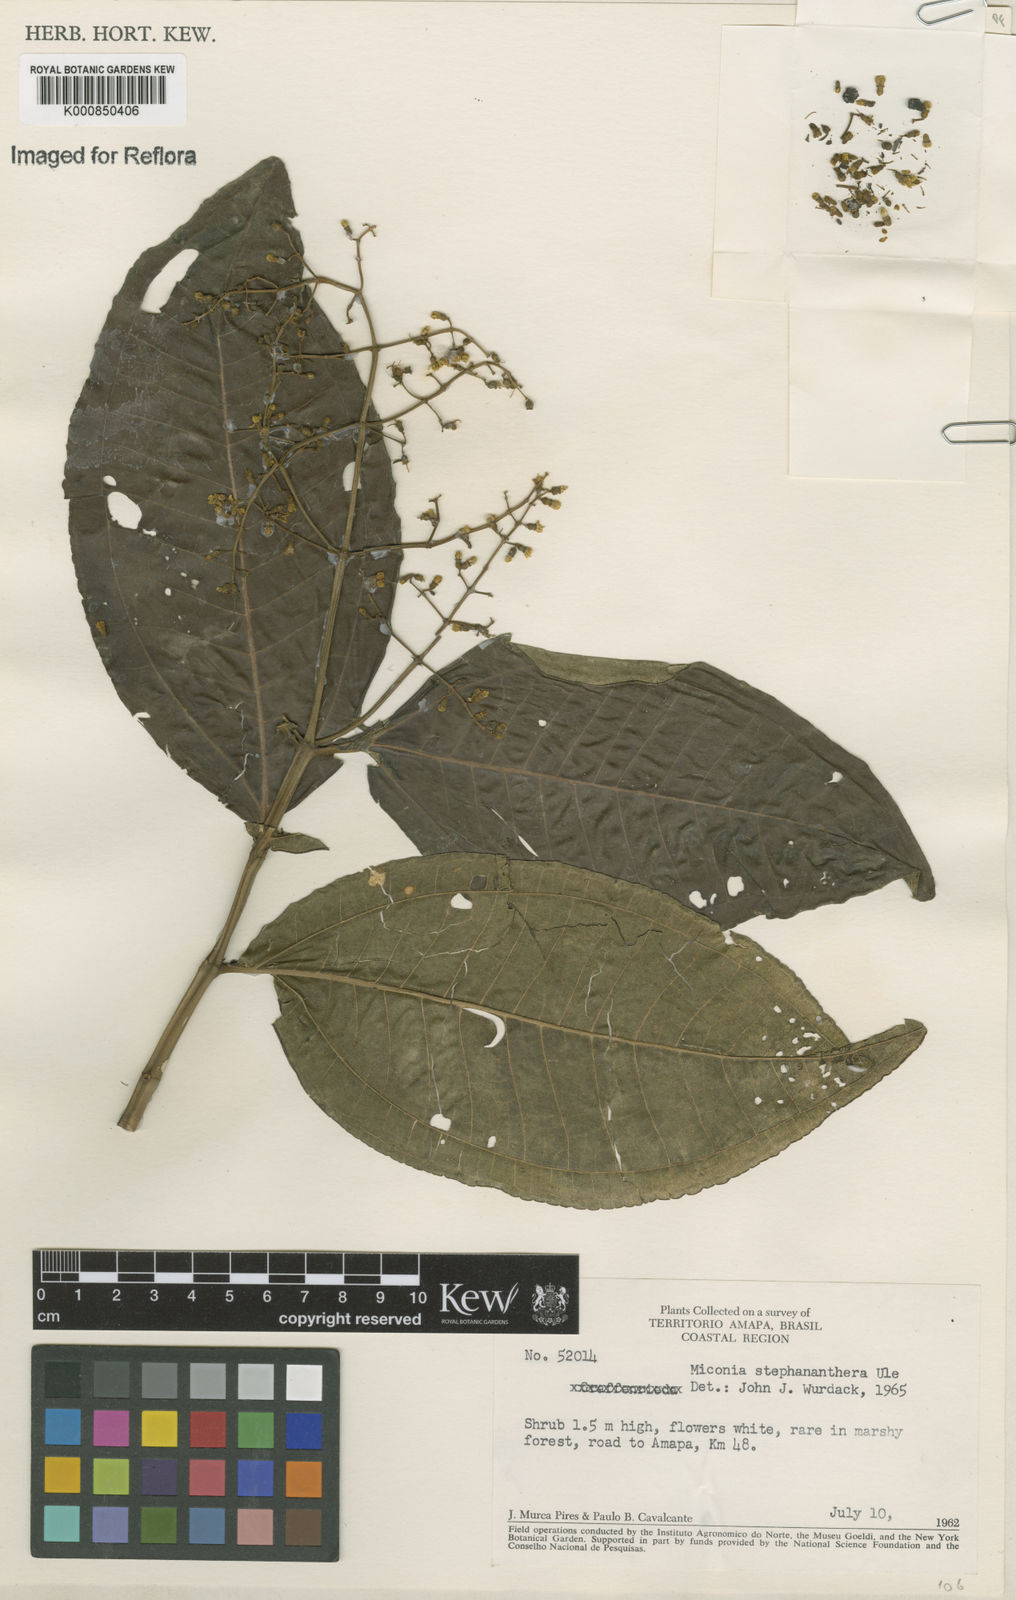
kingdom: Plantae
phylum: Tracheophyta
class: Magnoliopsida
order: Myrtales
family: Melastomataceae
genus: Miconia
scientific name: Miconia stephananthera
